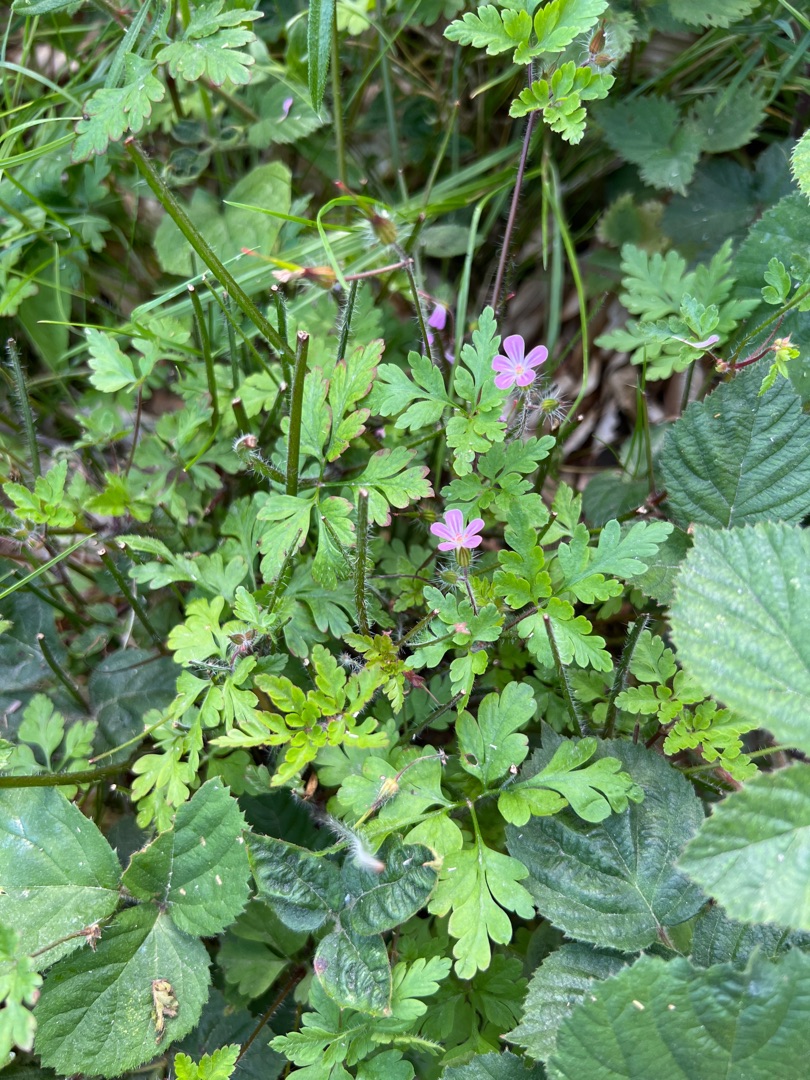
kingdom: Plantae
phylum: Tracheophyta
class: Magnoliopsida
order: Geraniales
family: Geraniaceae
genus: Geranium
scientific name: Geranium robertianum
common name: Stinkende storkenæb
